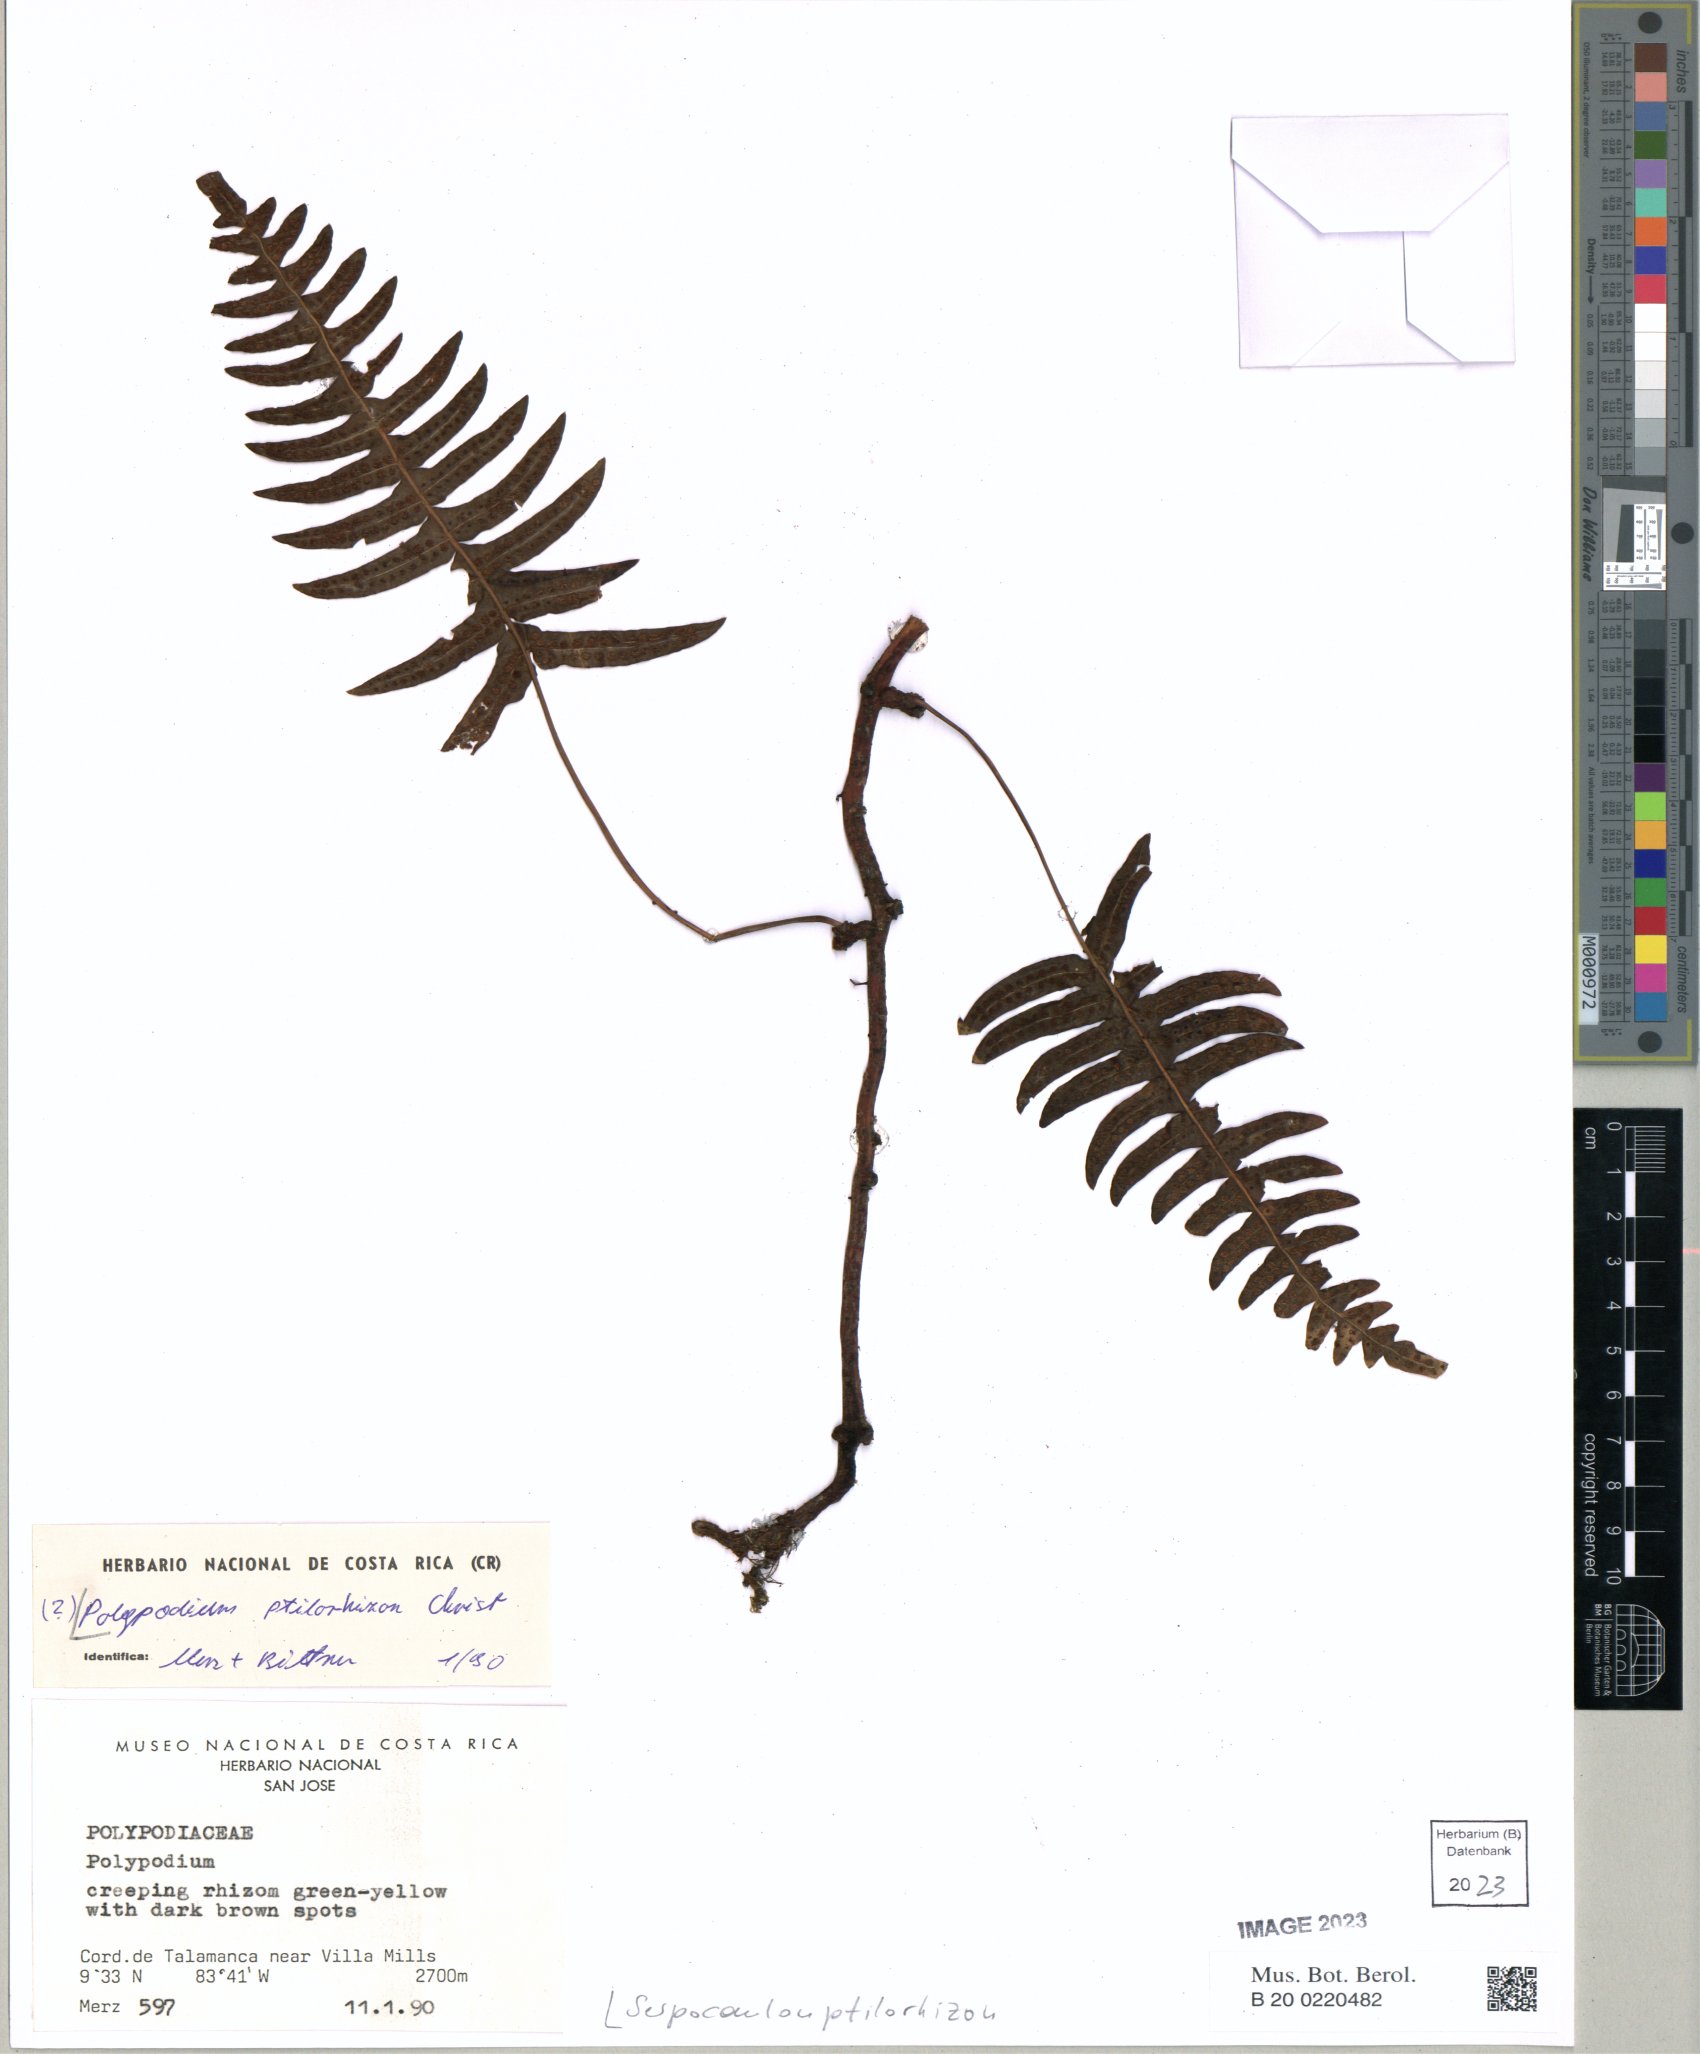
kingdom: Plantae
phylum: Tracheophyta
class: Polypodiopsida
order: Polypodiales
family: Polypodiaceae
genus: Serpocaulon
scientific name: Serpocaulon ptilorhizon
